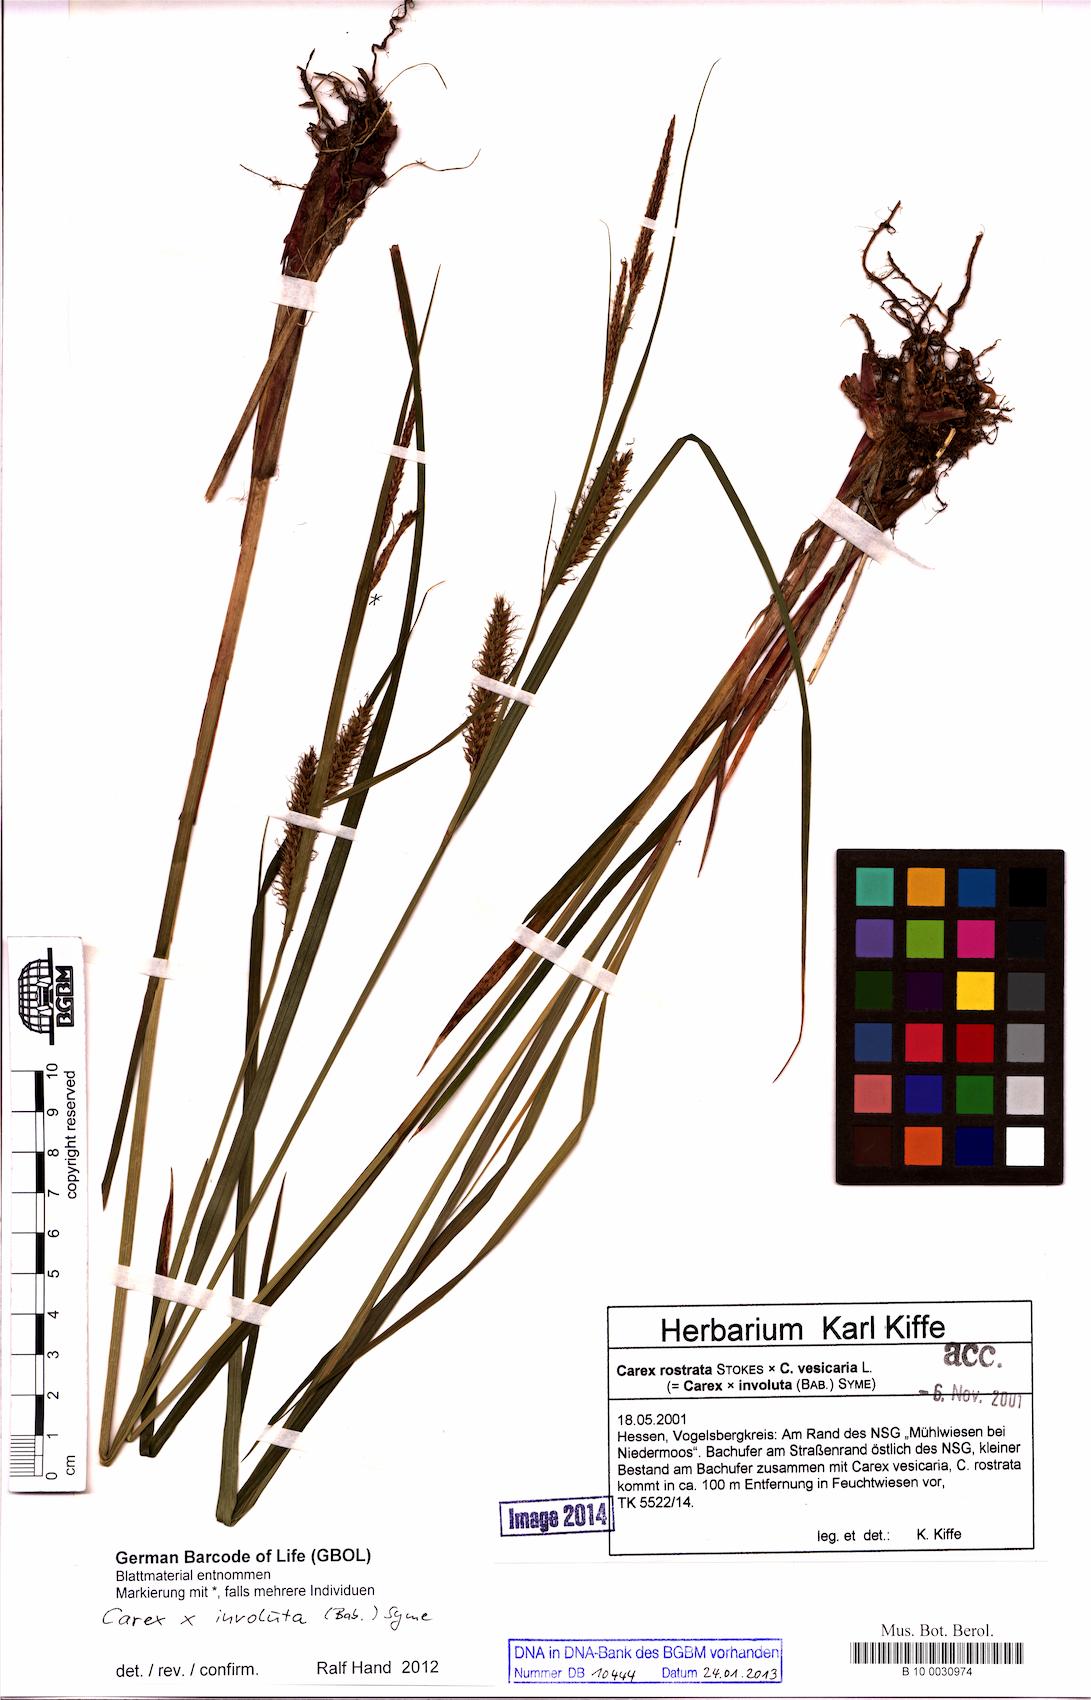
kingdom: Plantae
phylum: Tracheophyta
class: Liliopsida
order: Poales
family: Cyperaceae
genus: Carex
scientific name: Carex involuta
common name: Pannewitz's sedge
